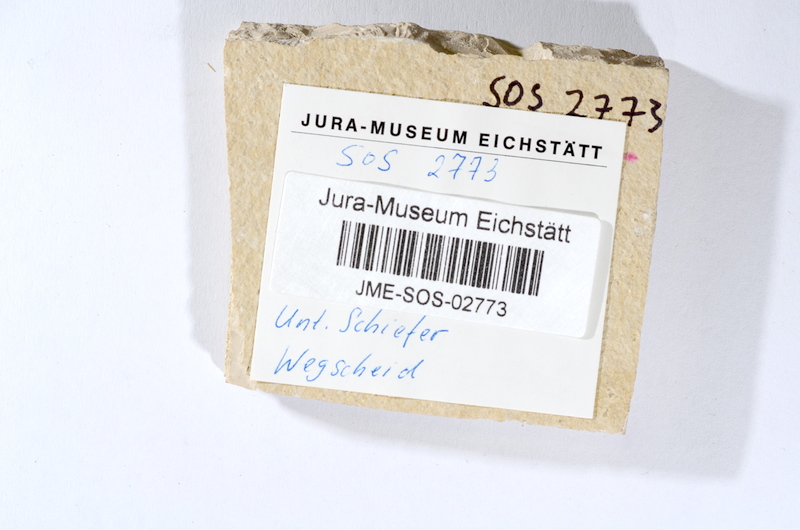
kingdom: Animalia
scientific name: Animalia
